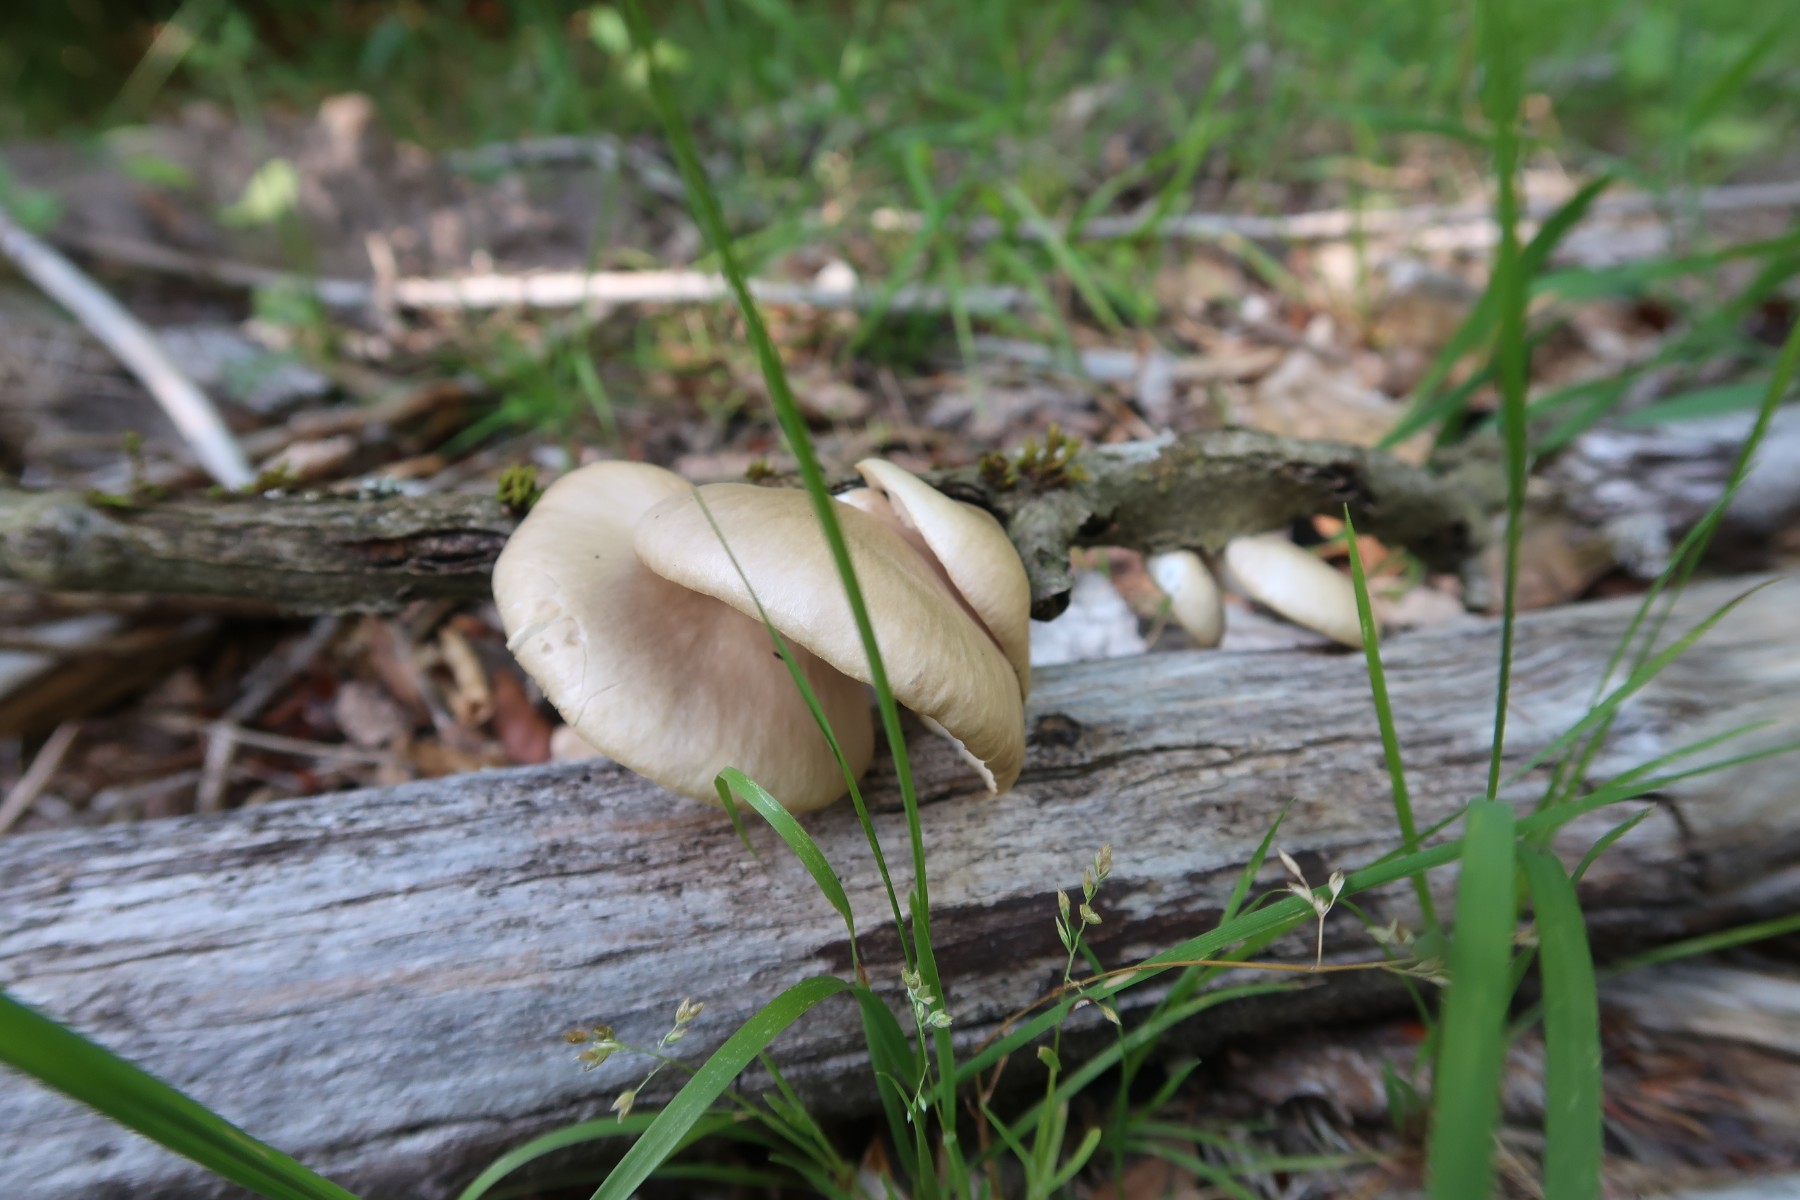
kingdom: Fungi
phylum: Basidiomycota
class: Agaricomycetes
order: Agaricales
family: Pleurotaceae
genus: Pleurotus
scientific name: Pleurotus pulmonarius
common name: sommer-østershat
